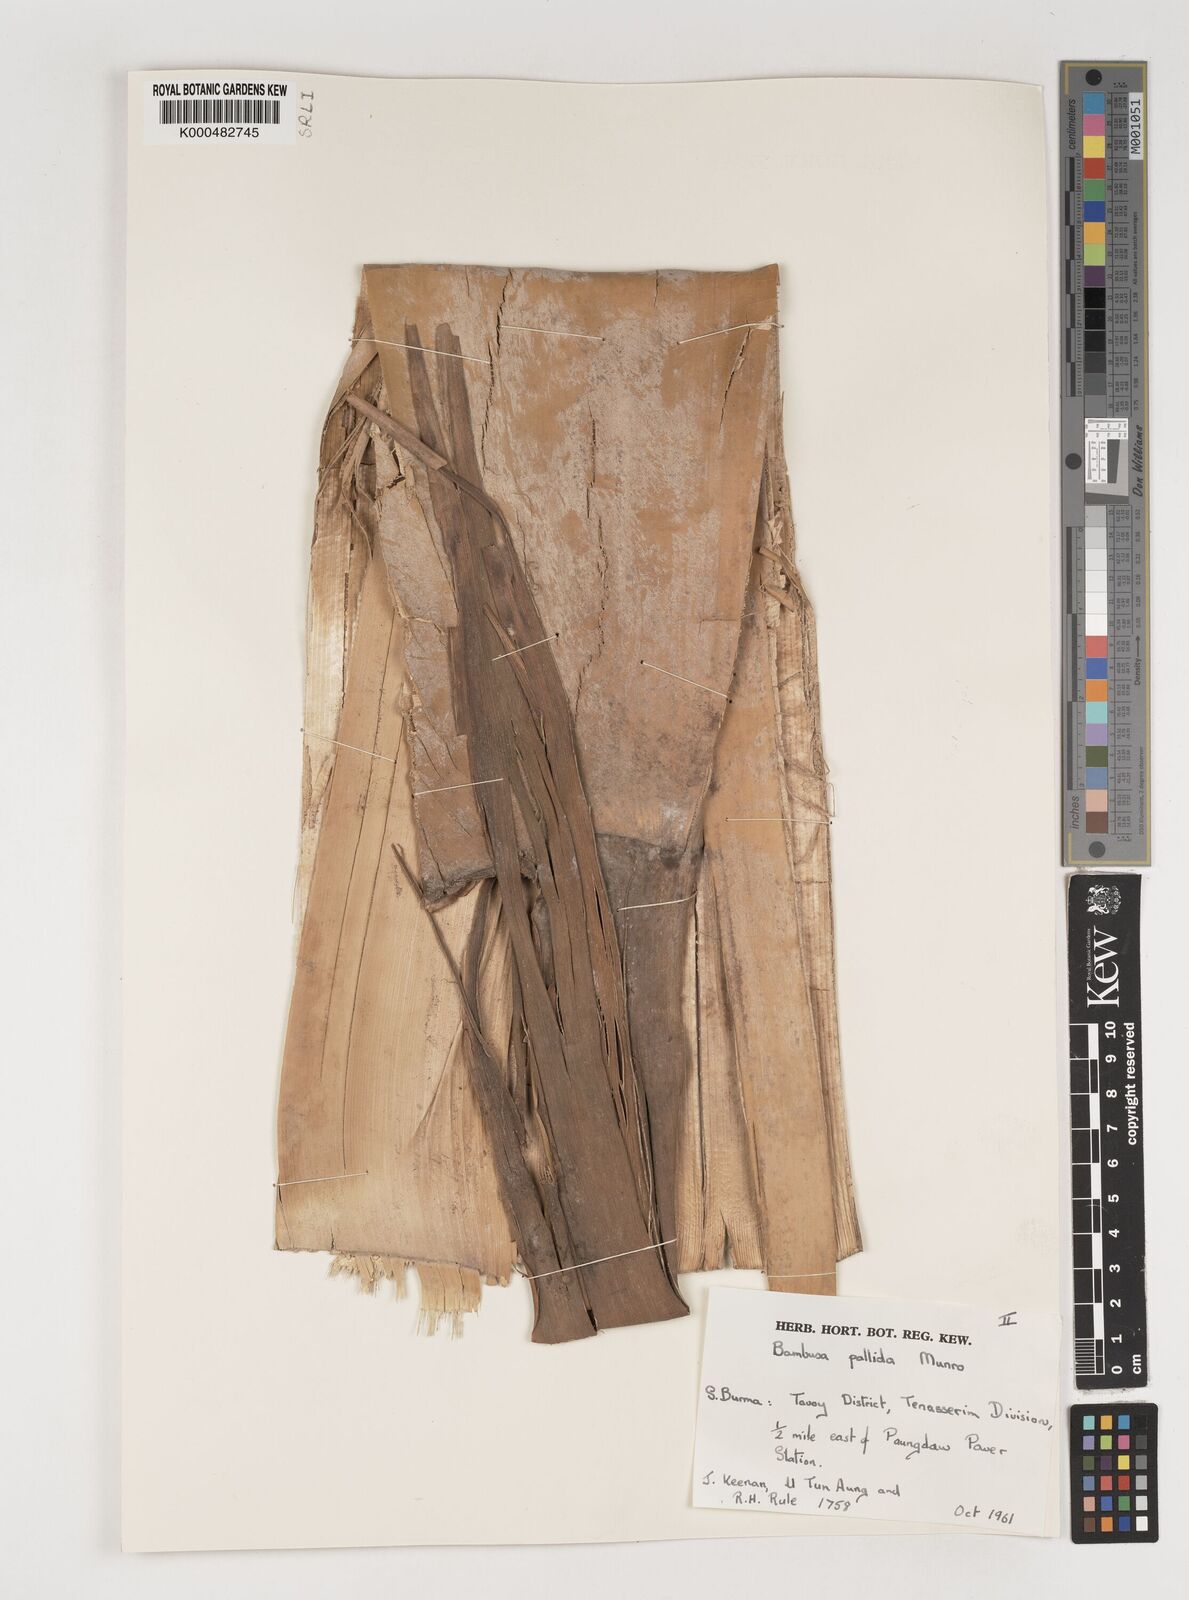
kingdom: Plantae
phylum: Tracheophyta
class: Liliopsida
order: Poales
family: Poaceae
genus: Bambusa
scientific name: Bambusa pallida
